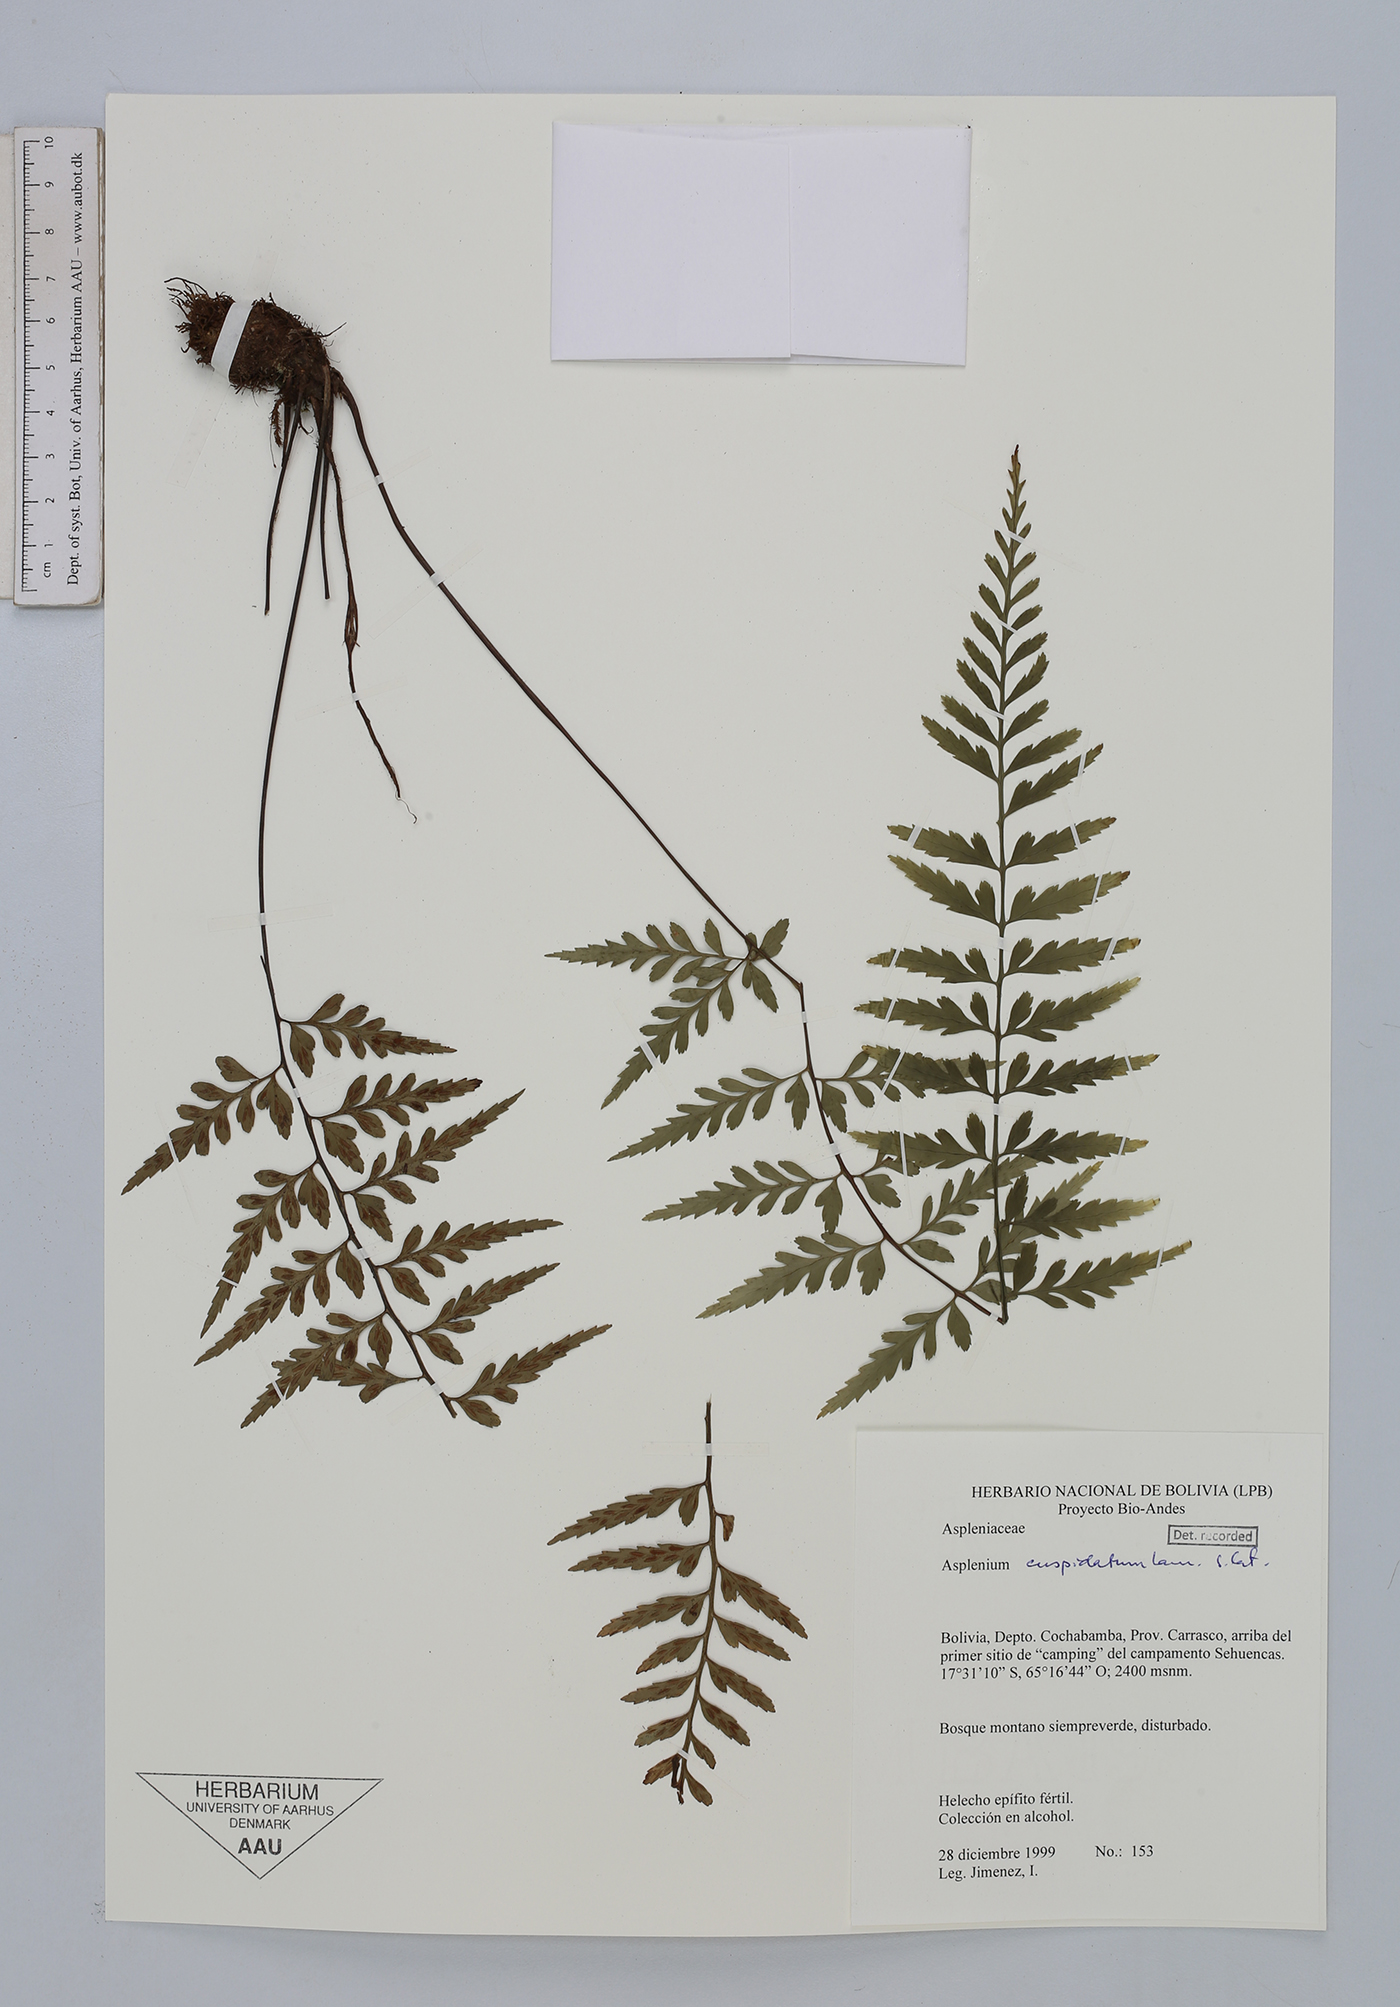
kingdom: Plantae
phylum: Tracheophyta
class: Polypodiopsida
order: Polypodiales
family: Aspleniaceae
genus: Asplenium
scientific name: Asplenium cuspidatum
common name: Eared spleenwort
